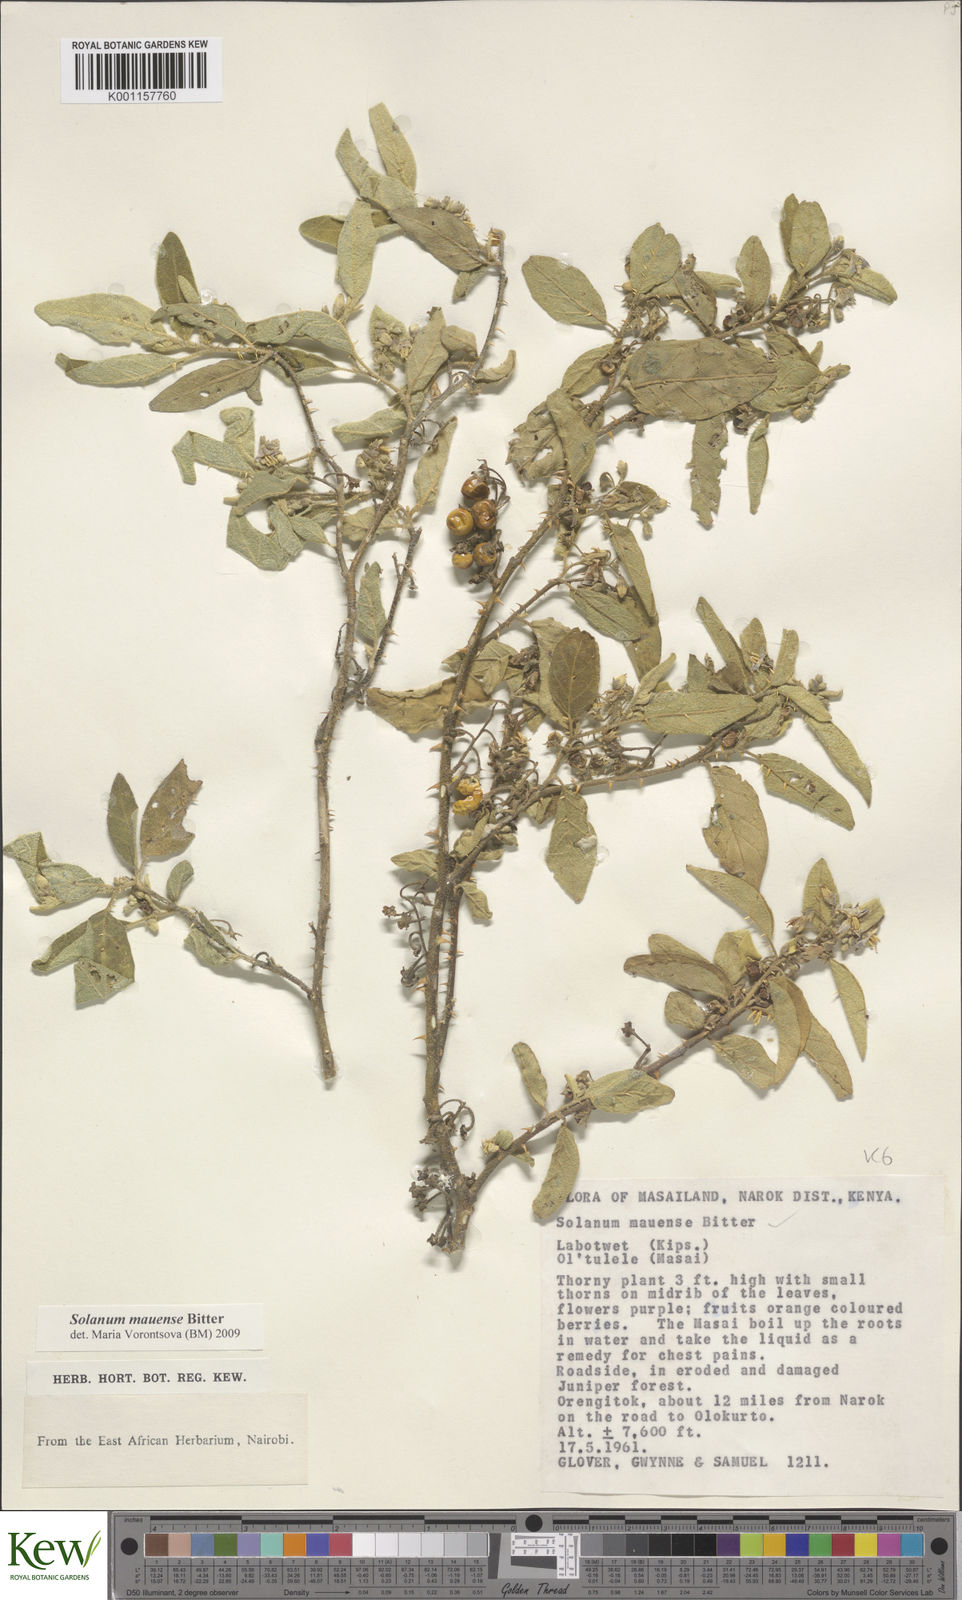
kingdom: Plantae
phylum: Tracheophyta
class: Magnoliopsida
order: Solanales
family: Solanaceae
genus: Solanum
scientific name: Solanum mauense
